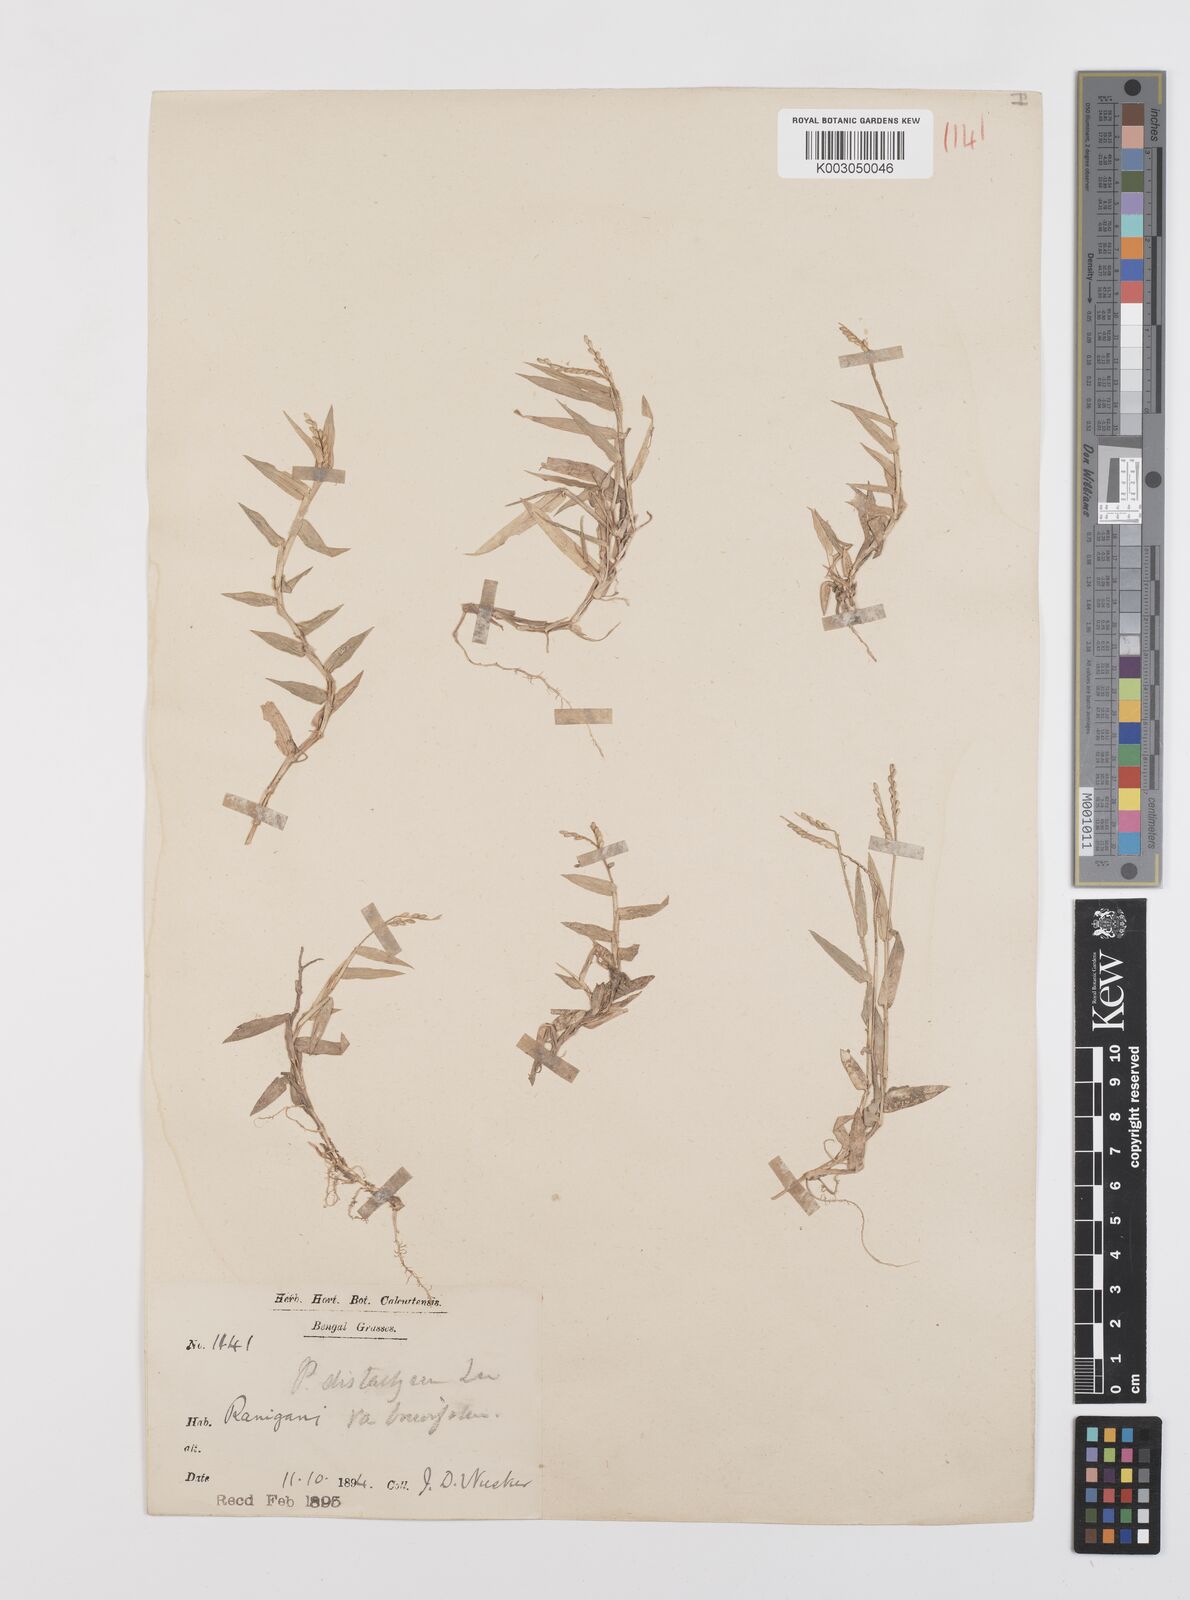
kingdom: Plantae
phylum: Tracheophyta
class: Liliopsida
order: Poales
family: Poaceae
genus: Urochloa
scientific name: Urochloa distachyos
